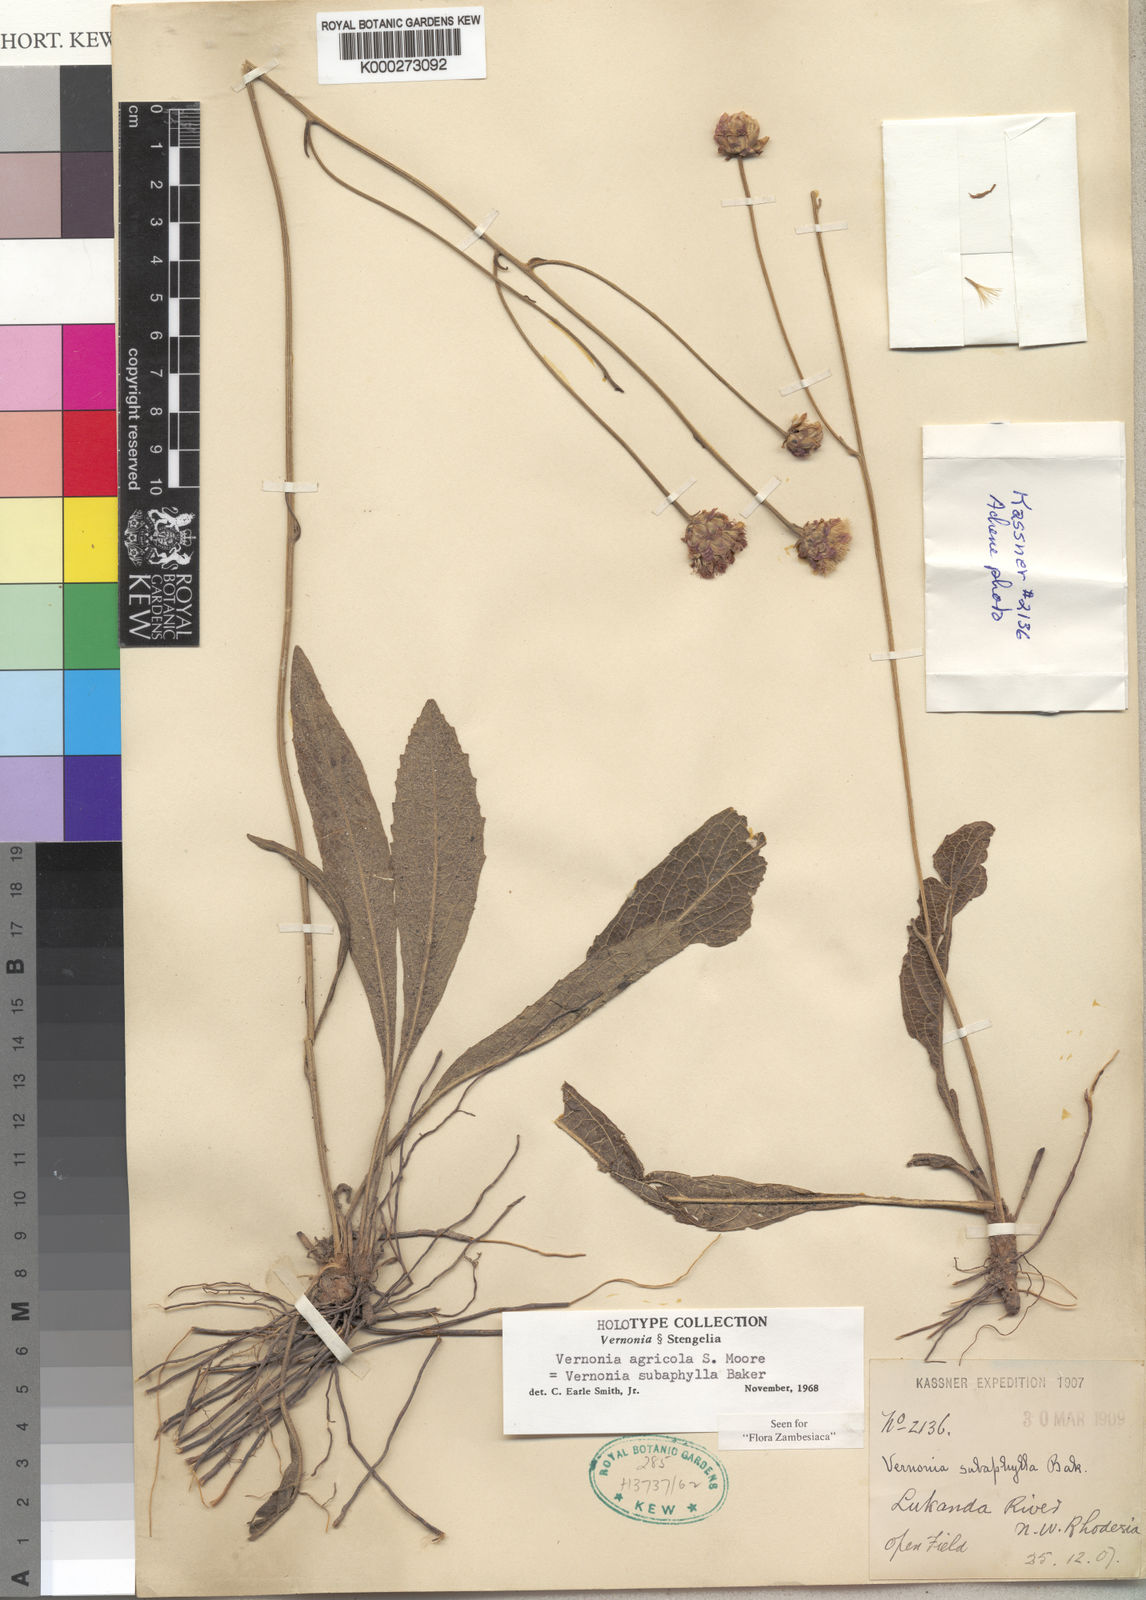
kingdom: Plantae
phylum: Tracheophyta
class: Magnoliopsida
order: Asterales
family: Asteraceae
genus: Vernonella
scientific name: Vernonella subaphylla
